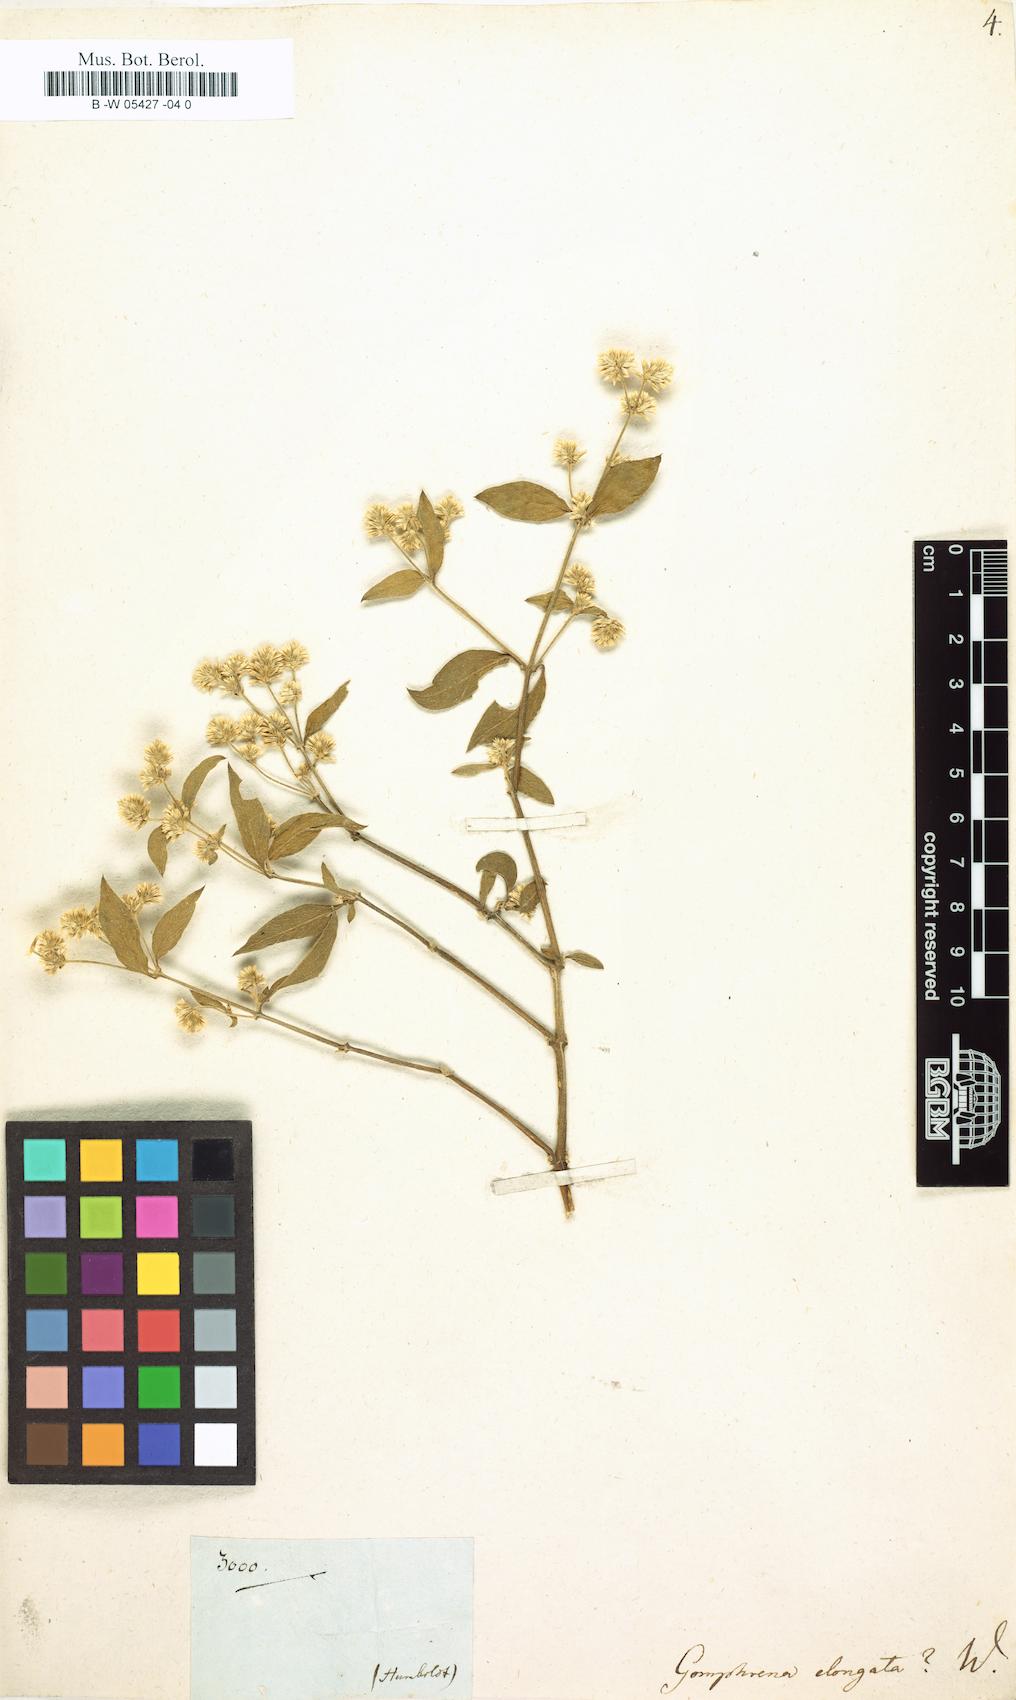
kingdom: Plantae
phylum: Tracheophyta
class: Magnoliopsida
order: Caryophyllales
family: Amaranthaceae
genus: Alternanthera
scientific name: Alternanthera porrigens
